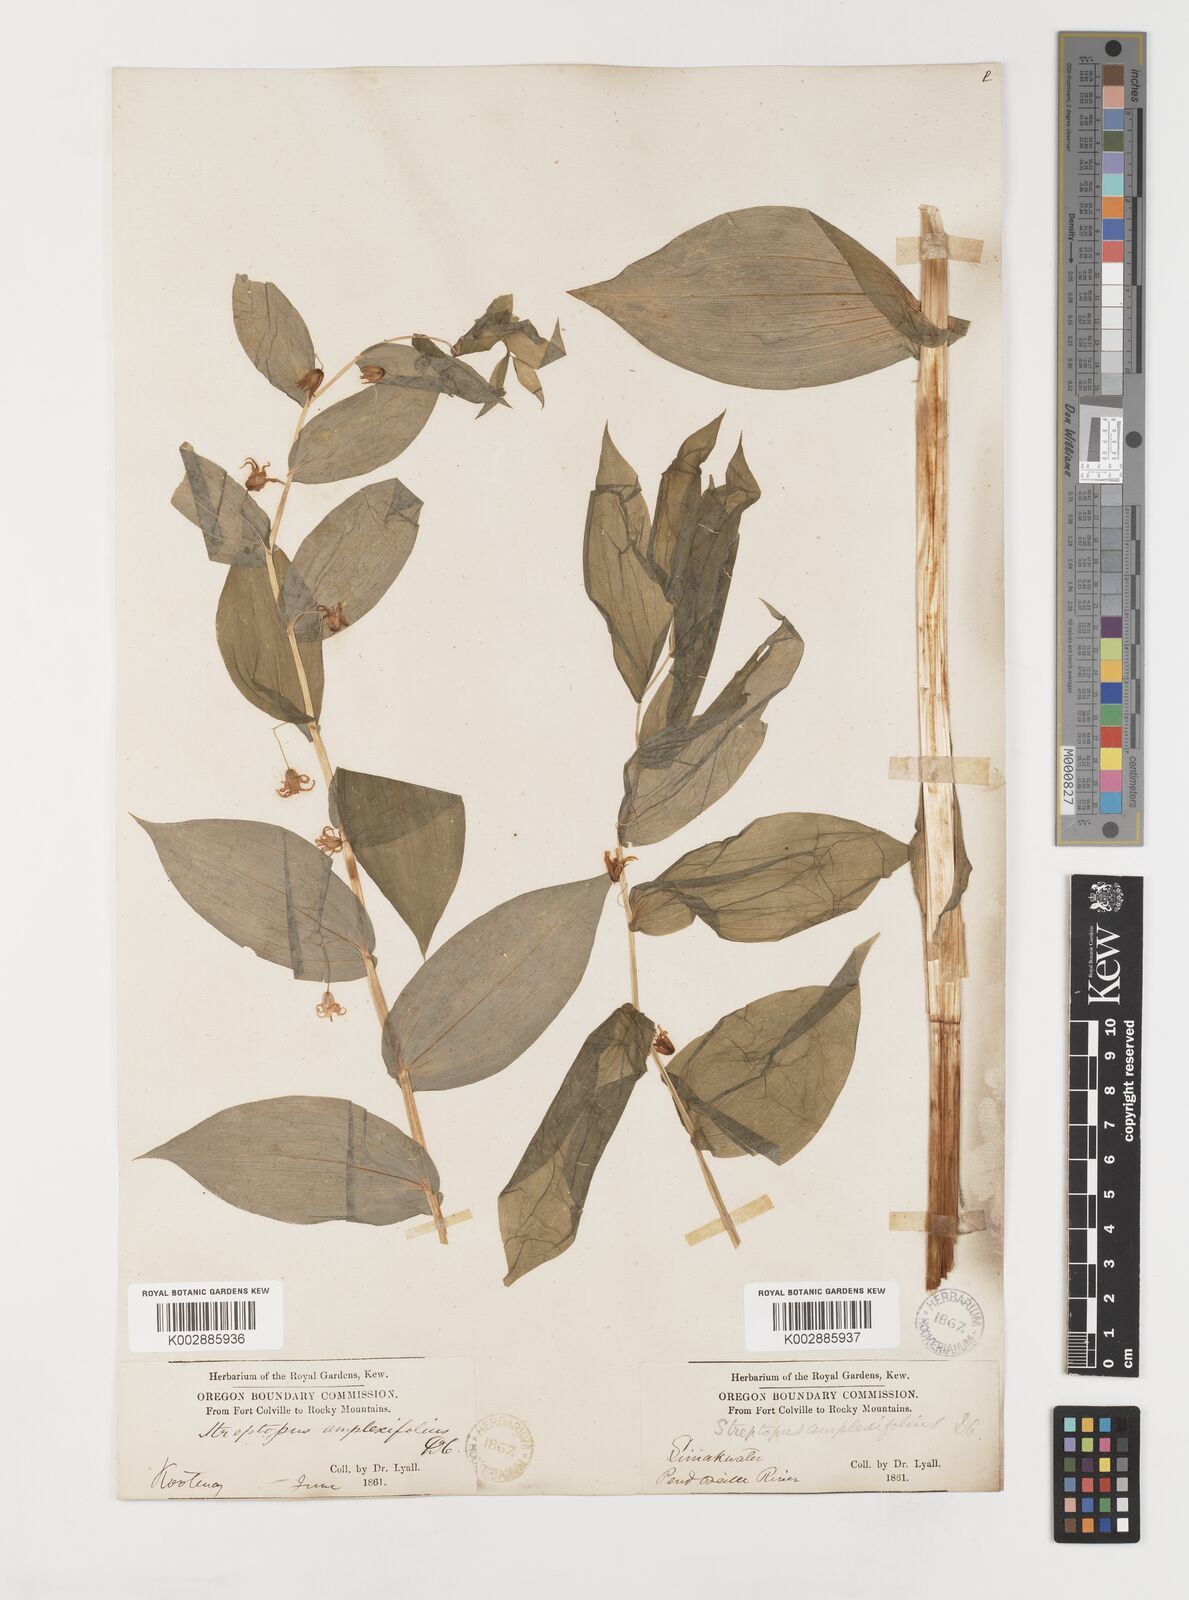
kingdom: Plantae
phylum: Tracheophyta
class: Liliopsida
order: Liliales
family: Liliaceae
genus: Streptopus
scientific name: Streptopus amplexifolius
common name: Clasp twisted stalk
